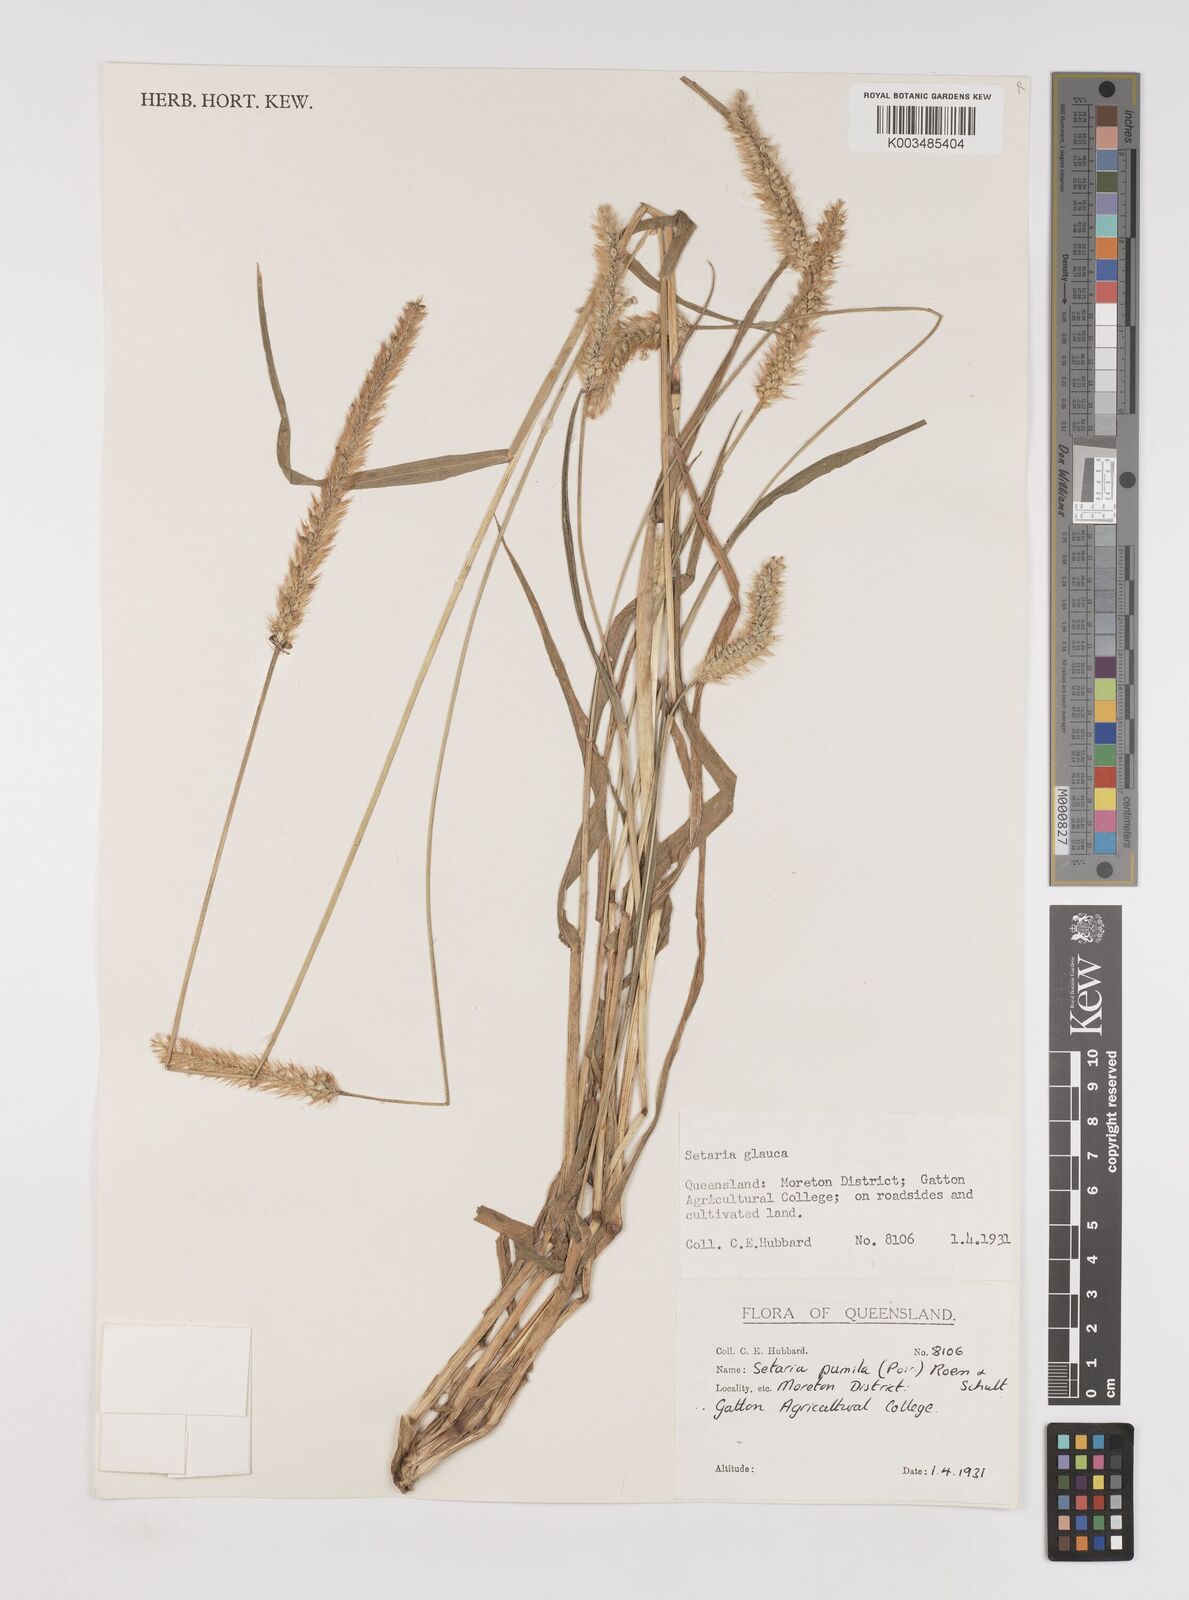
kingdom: Plantae
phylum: Tracheophyta
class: Liliopsida
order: Poales
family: Poaceae
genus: Setaria
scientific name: Setaria pumila
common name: Yellow bristle-grass
